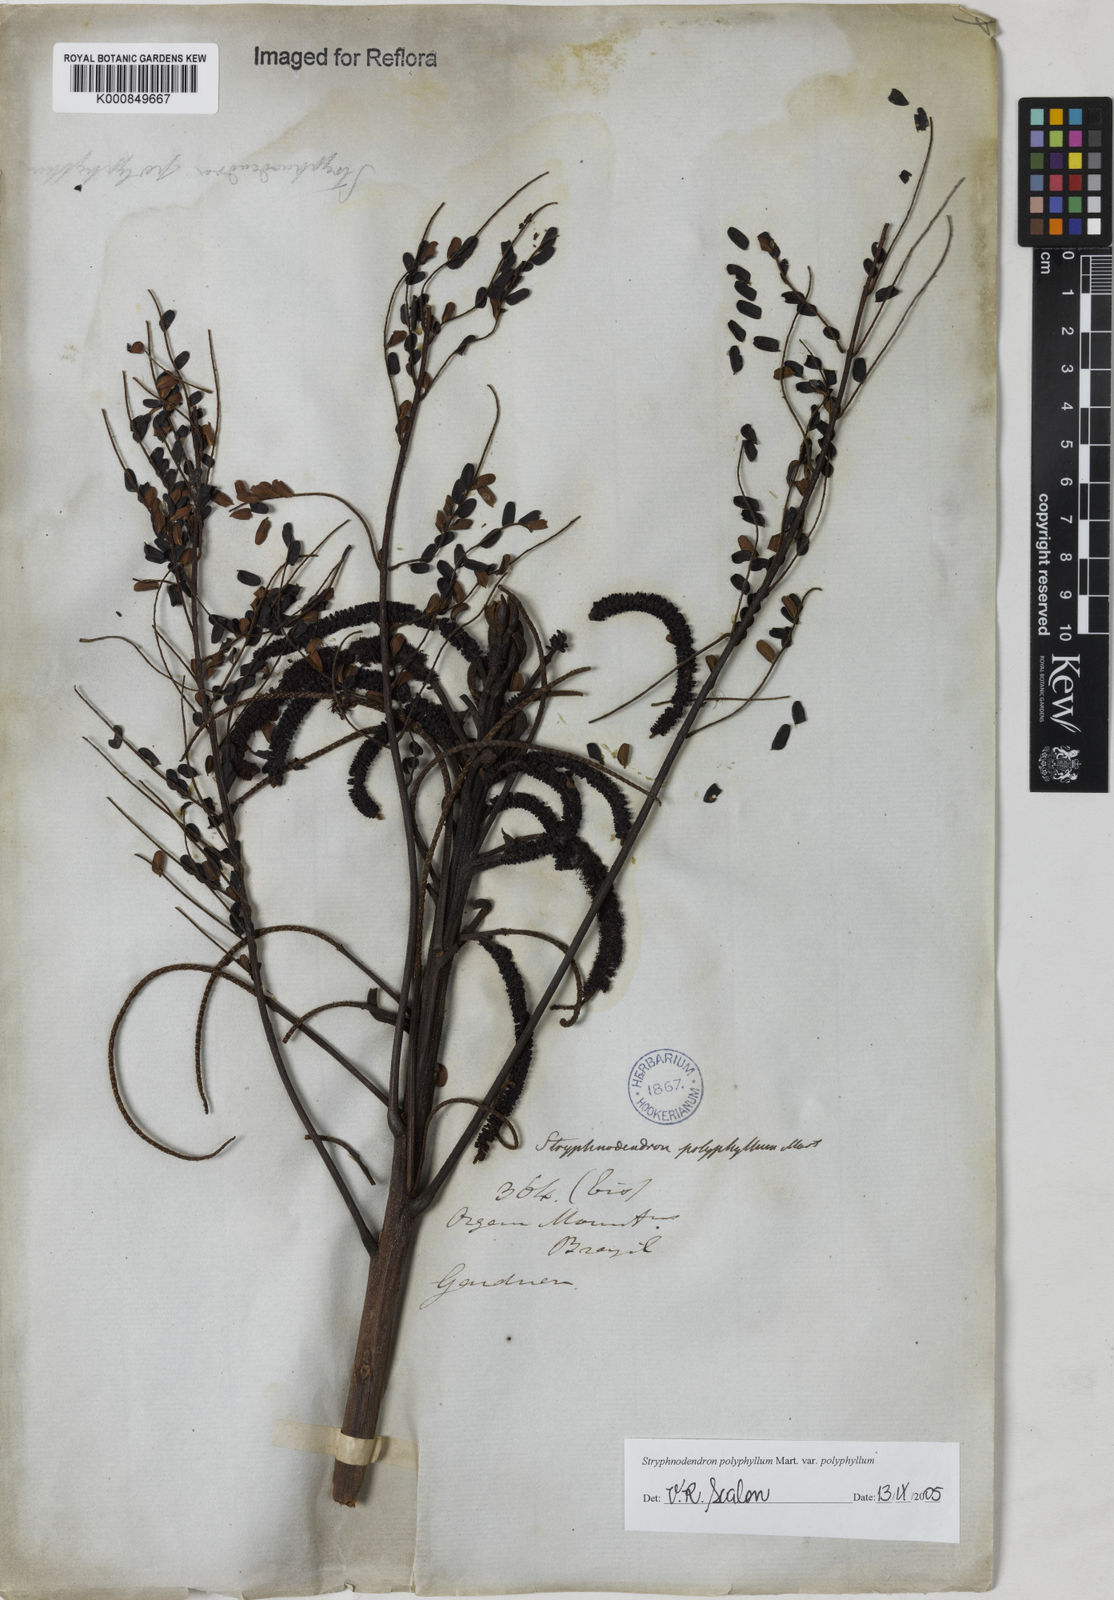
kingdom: Plantae
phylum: Tracheophyta
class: Magnoliopsida
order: Fabales
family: Fabaceae
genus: Stryphnodendron
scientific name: Stryphnodendron polyphyllum
